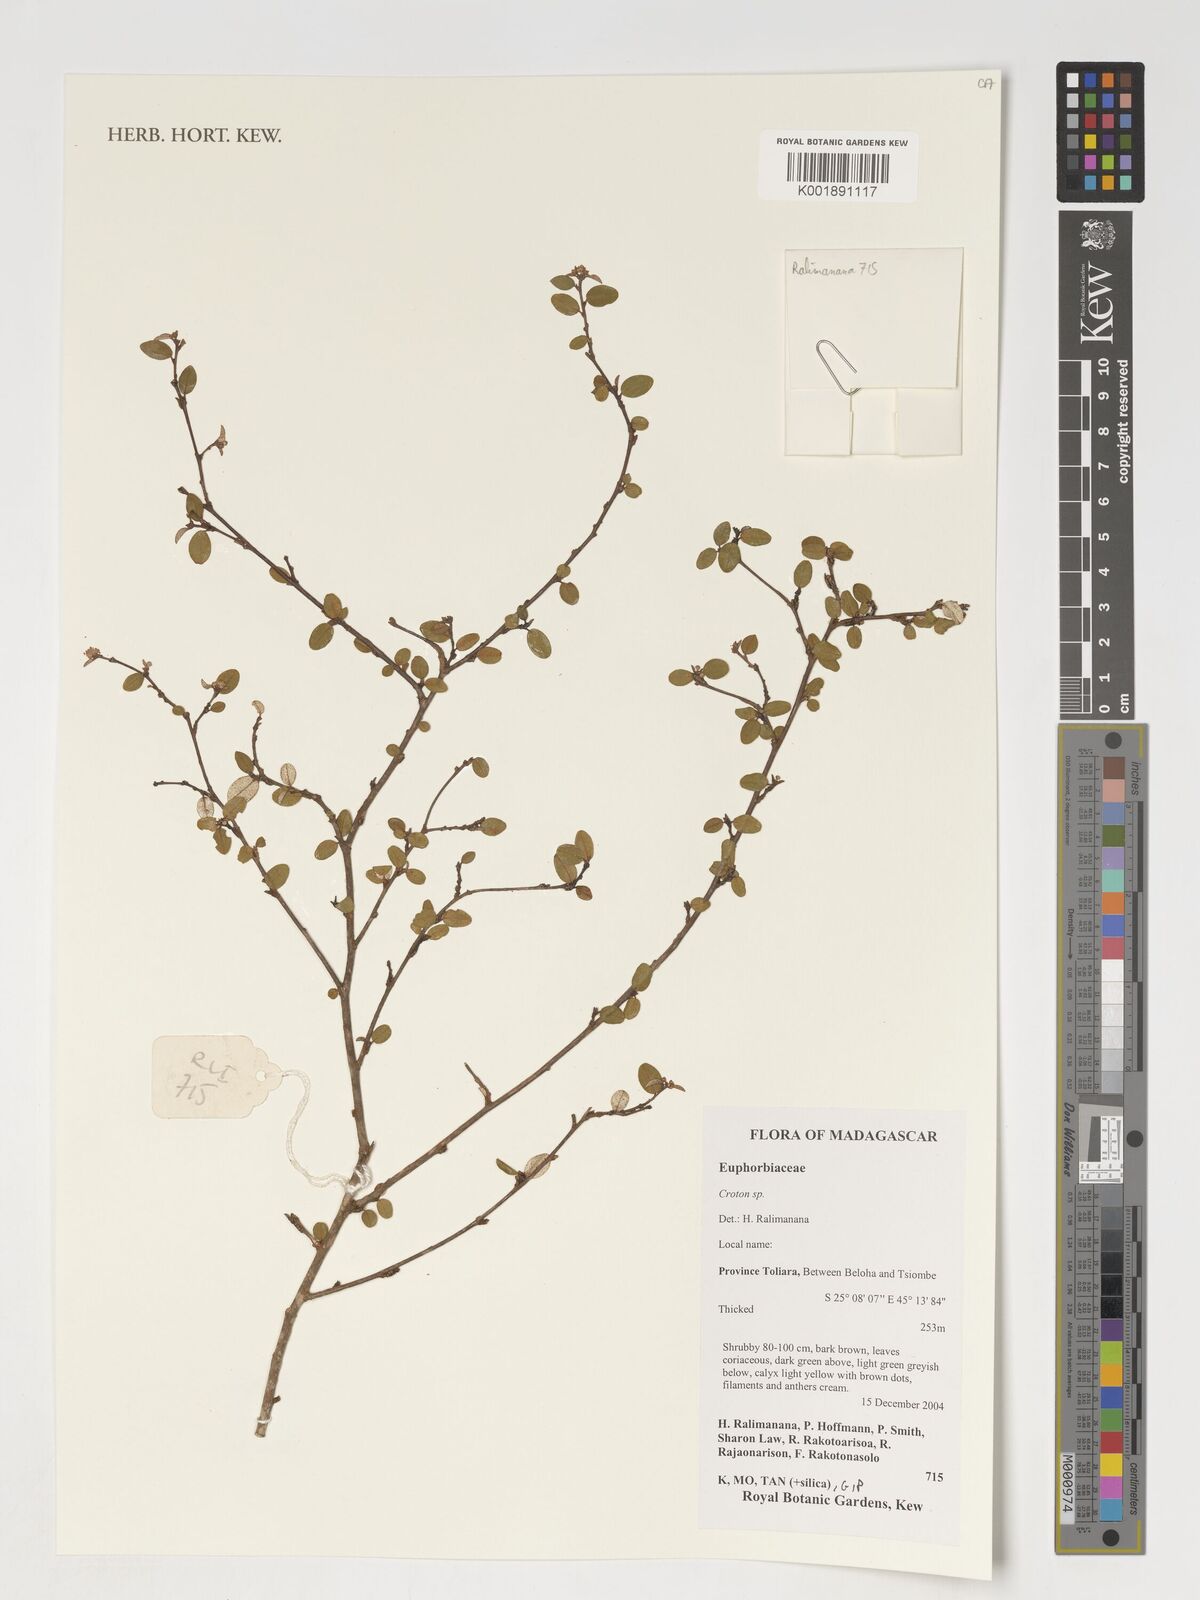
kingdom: Plantae
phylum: Tracheophyta
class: Magnoliopsida
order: Malpighiales
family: Euphorbiaceae
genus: Croton
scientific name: Croton
